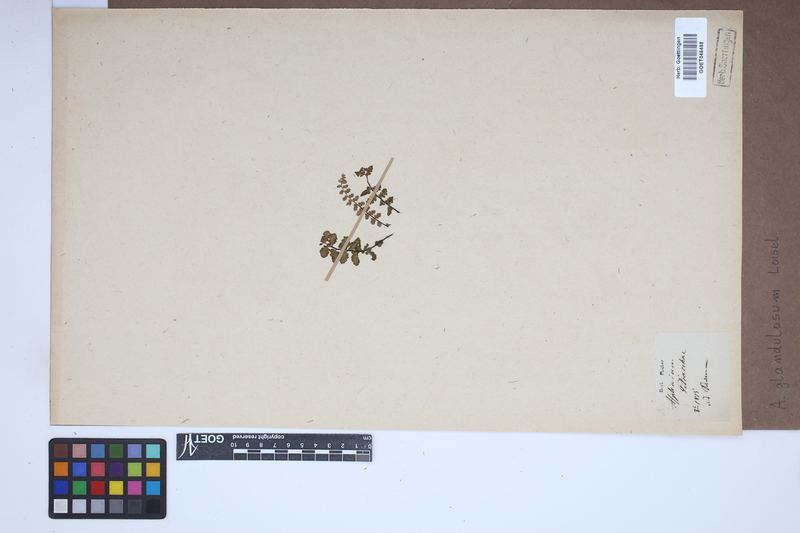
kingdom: Plantae
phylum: Tracheophyta
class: Polypodiopsida
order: Polypodiales
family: Aspleniaceae
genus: Asplenium
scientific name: Asplenium petrarchae
